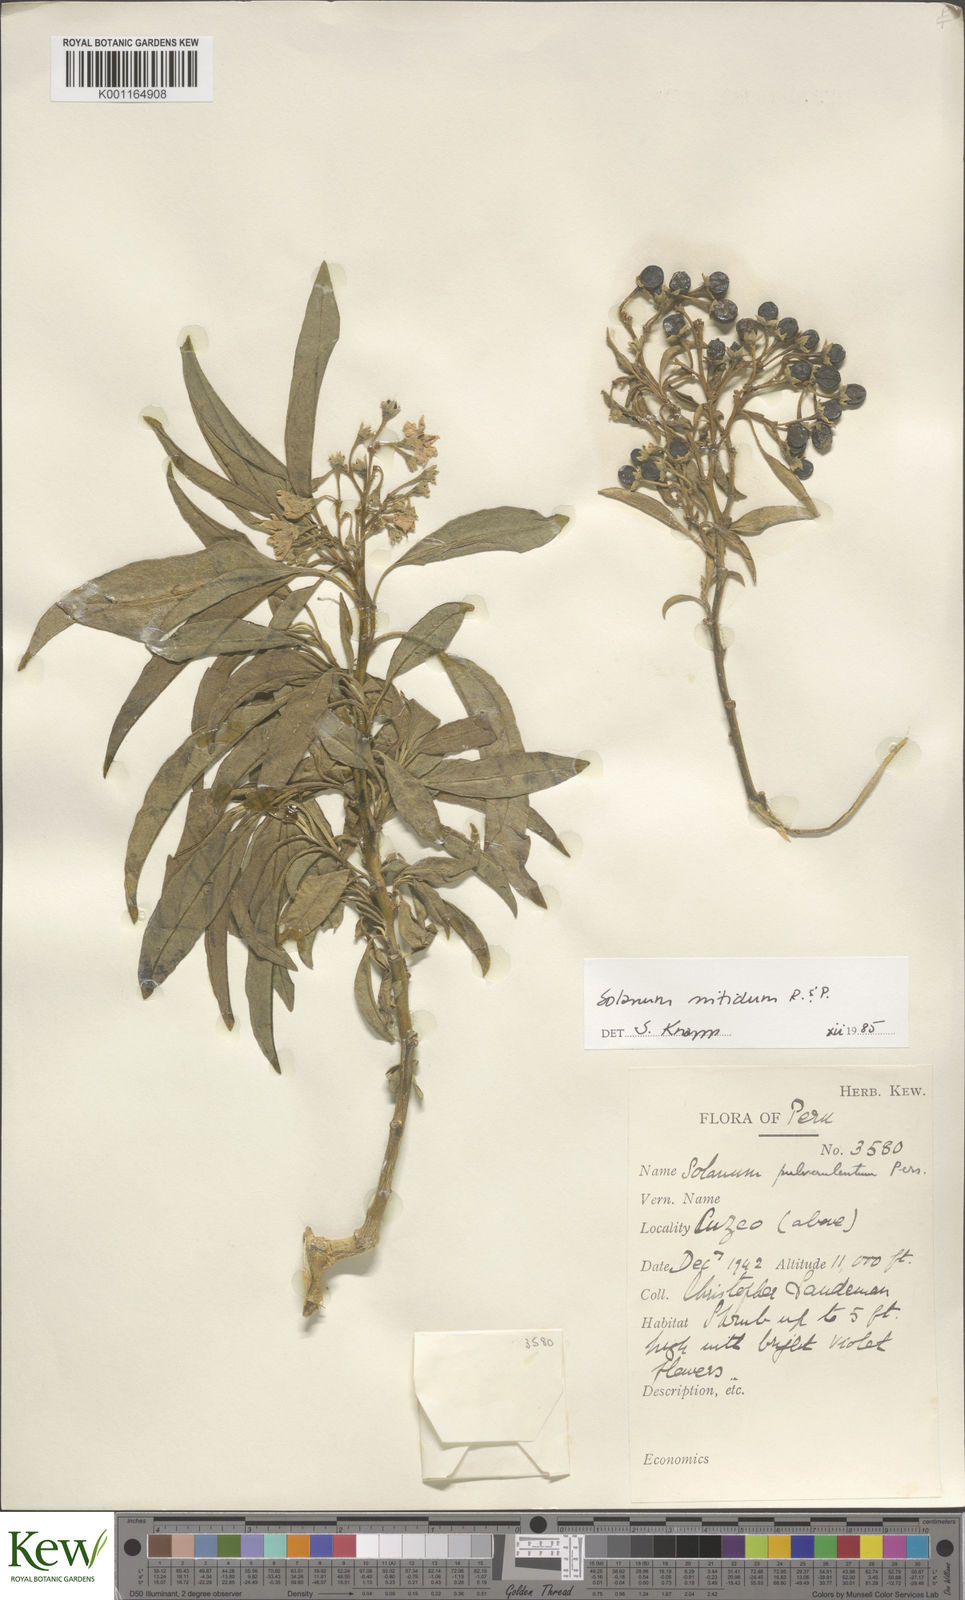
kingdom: Plantae
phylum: Tracheophyta
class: Magnoliopsida
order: Solanales
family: Solanaceae
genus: Solanum
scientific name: Solanum nitidum
